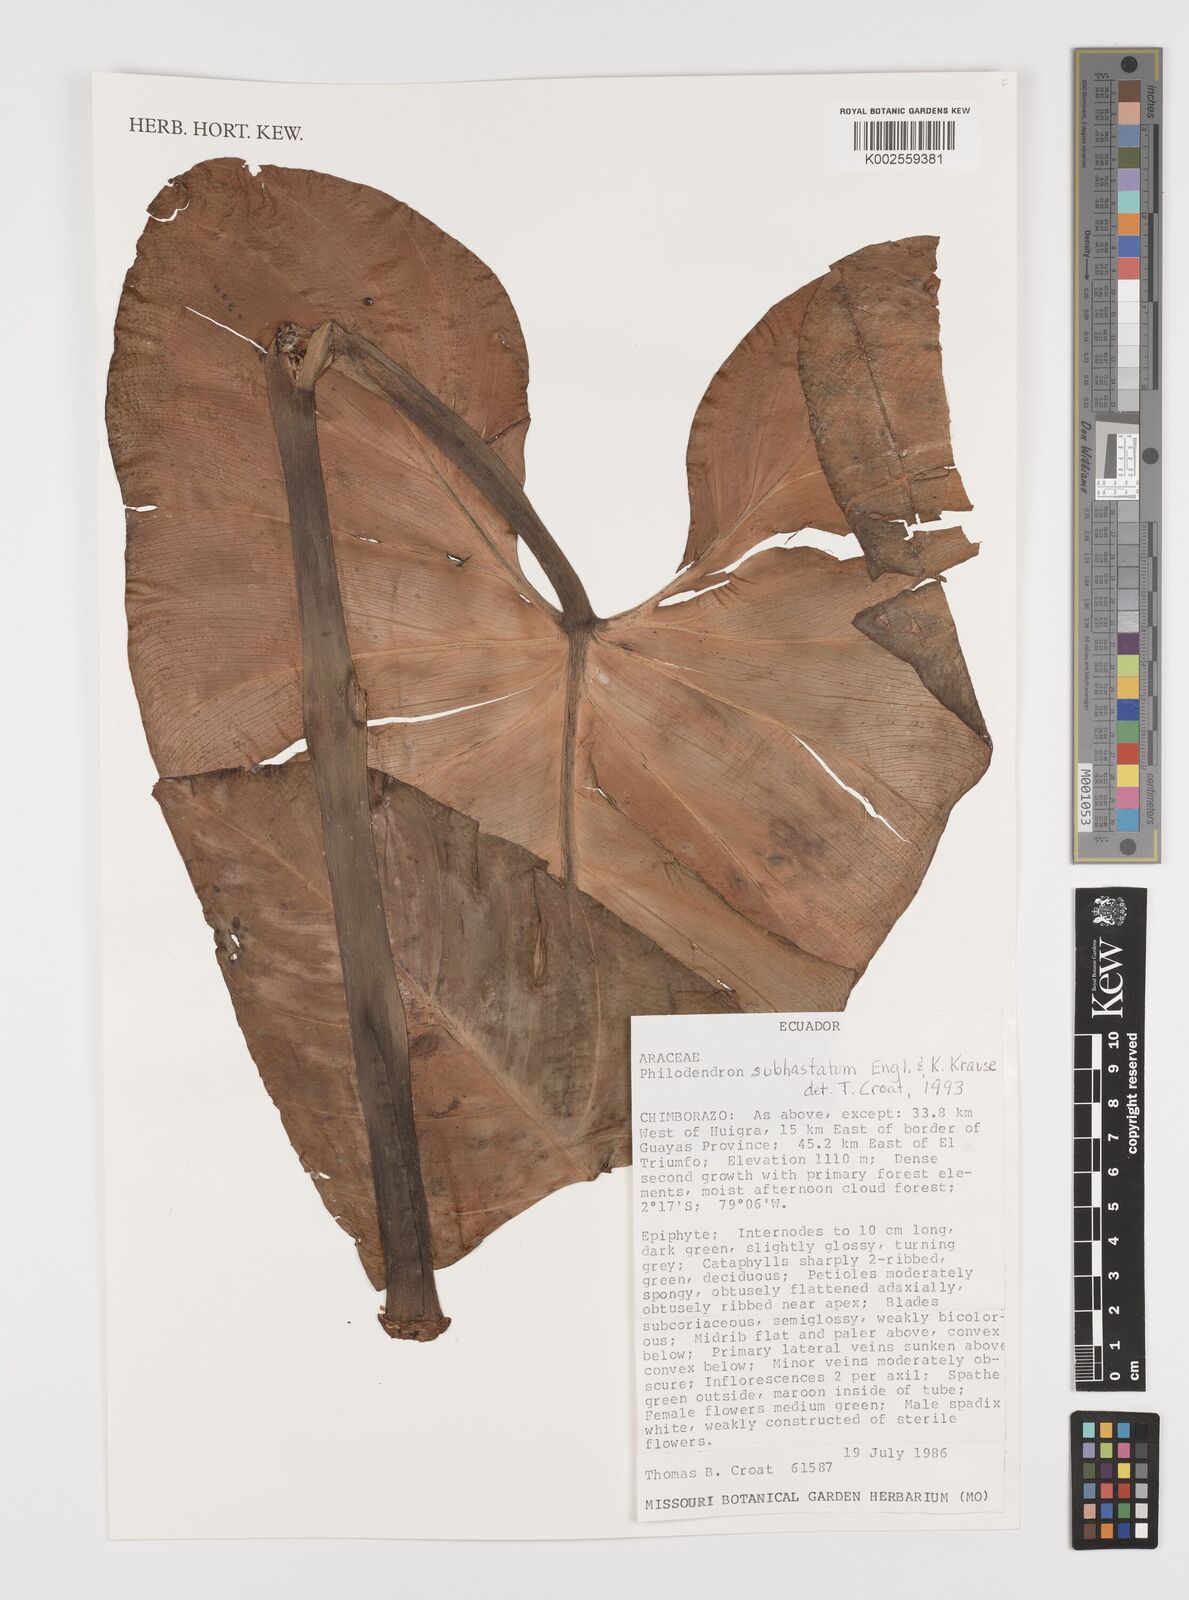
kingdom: Plantae
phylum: Tracheophyta
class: Liliopsida
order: Alismatales
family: Araceae
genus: Philodendron
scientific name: Philodendron subhastatum
